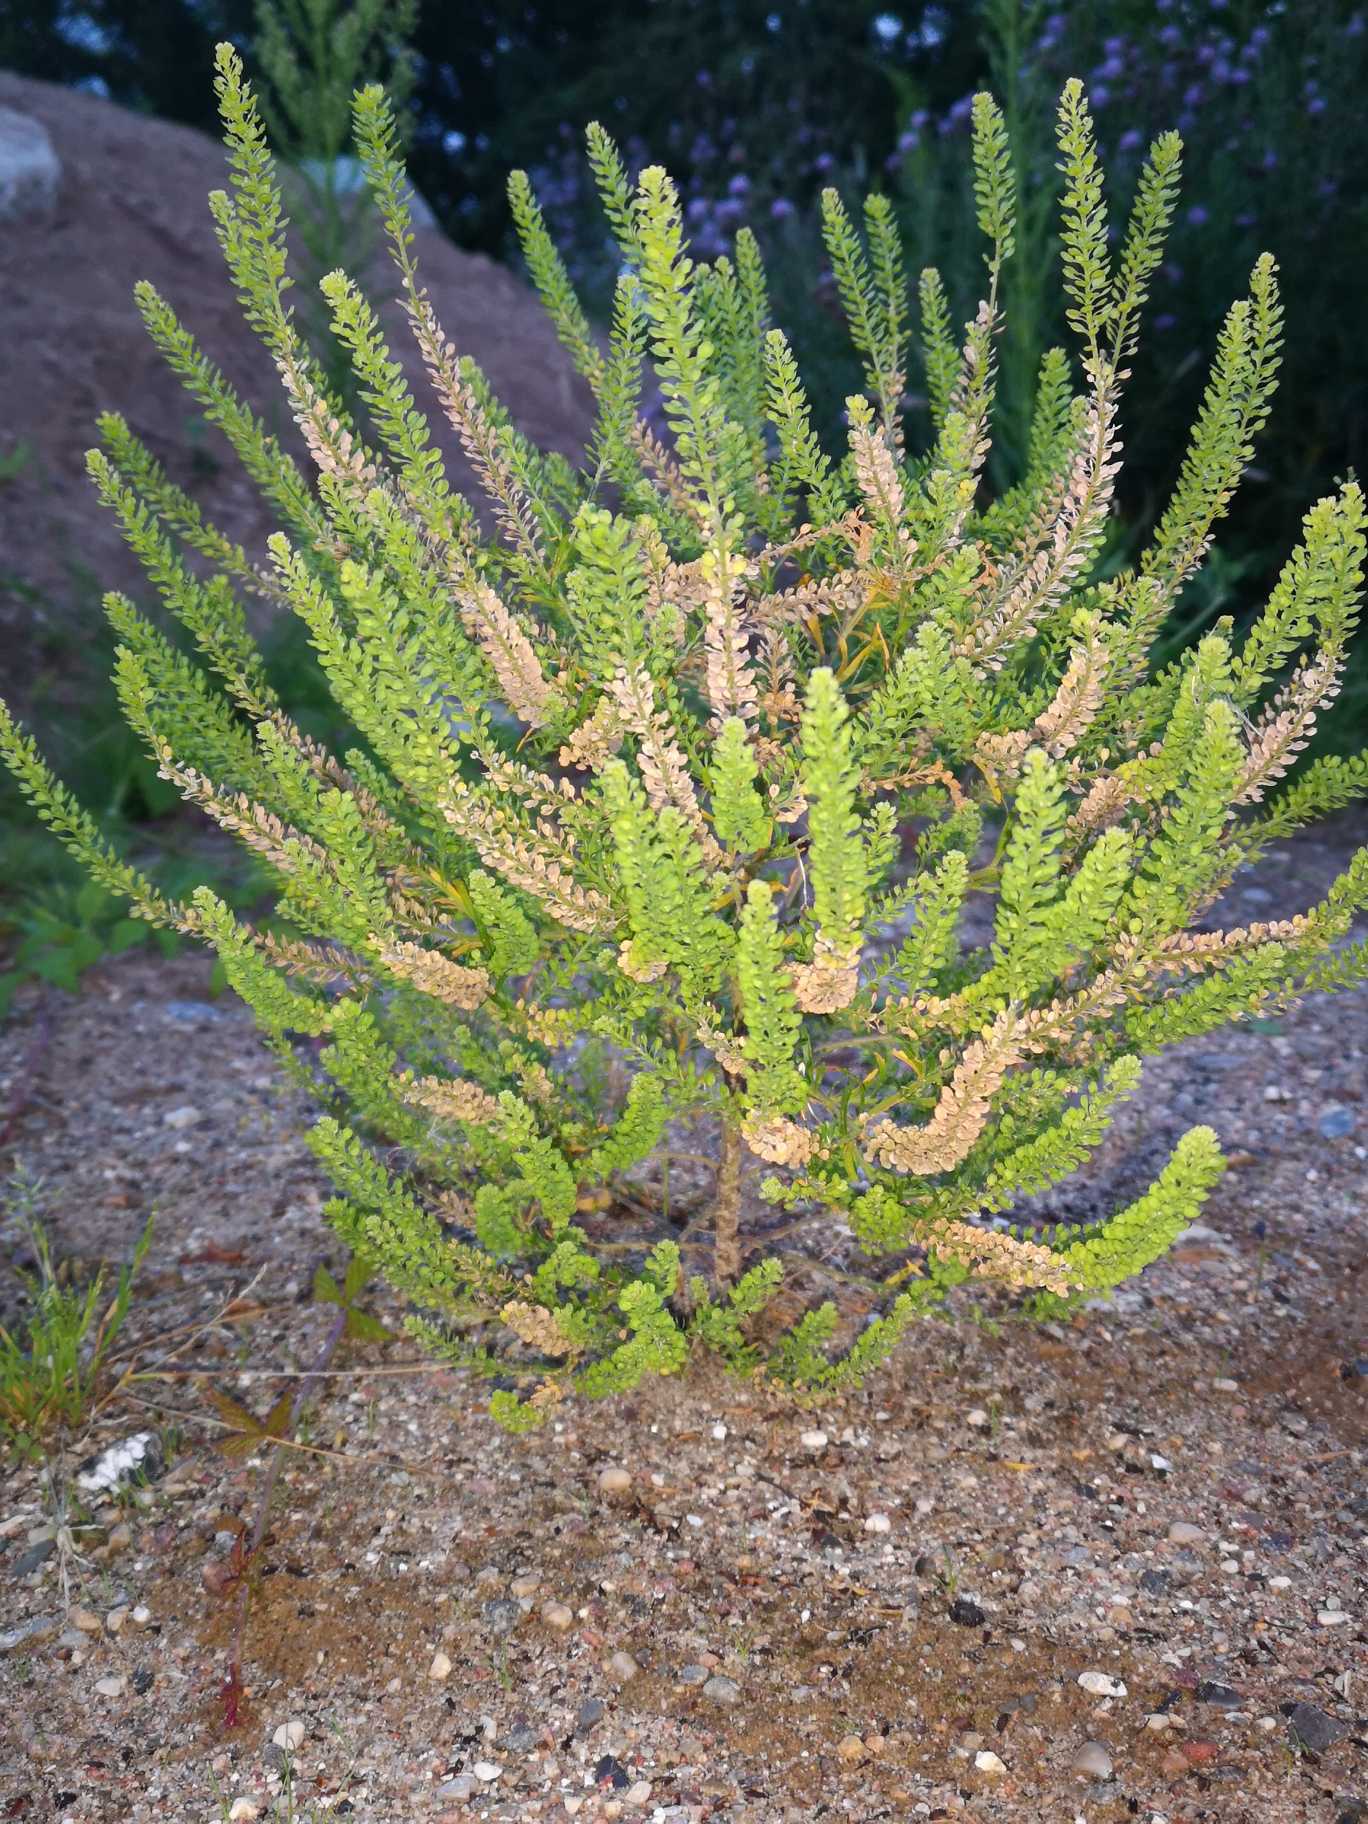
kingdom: Plantae
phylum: Tracheophyta
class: Magnoliopsida
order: Brassicales
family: Brassicaceae
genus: Lepidium
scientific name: Lepidium densiflorum
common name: Tætblomstret karse
